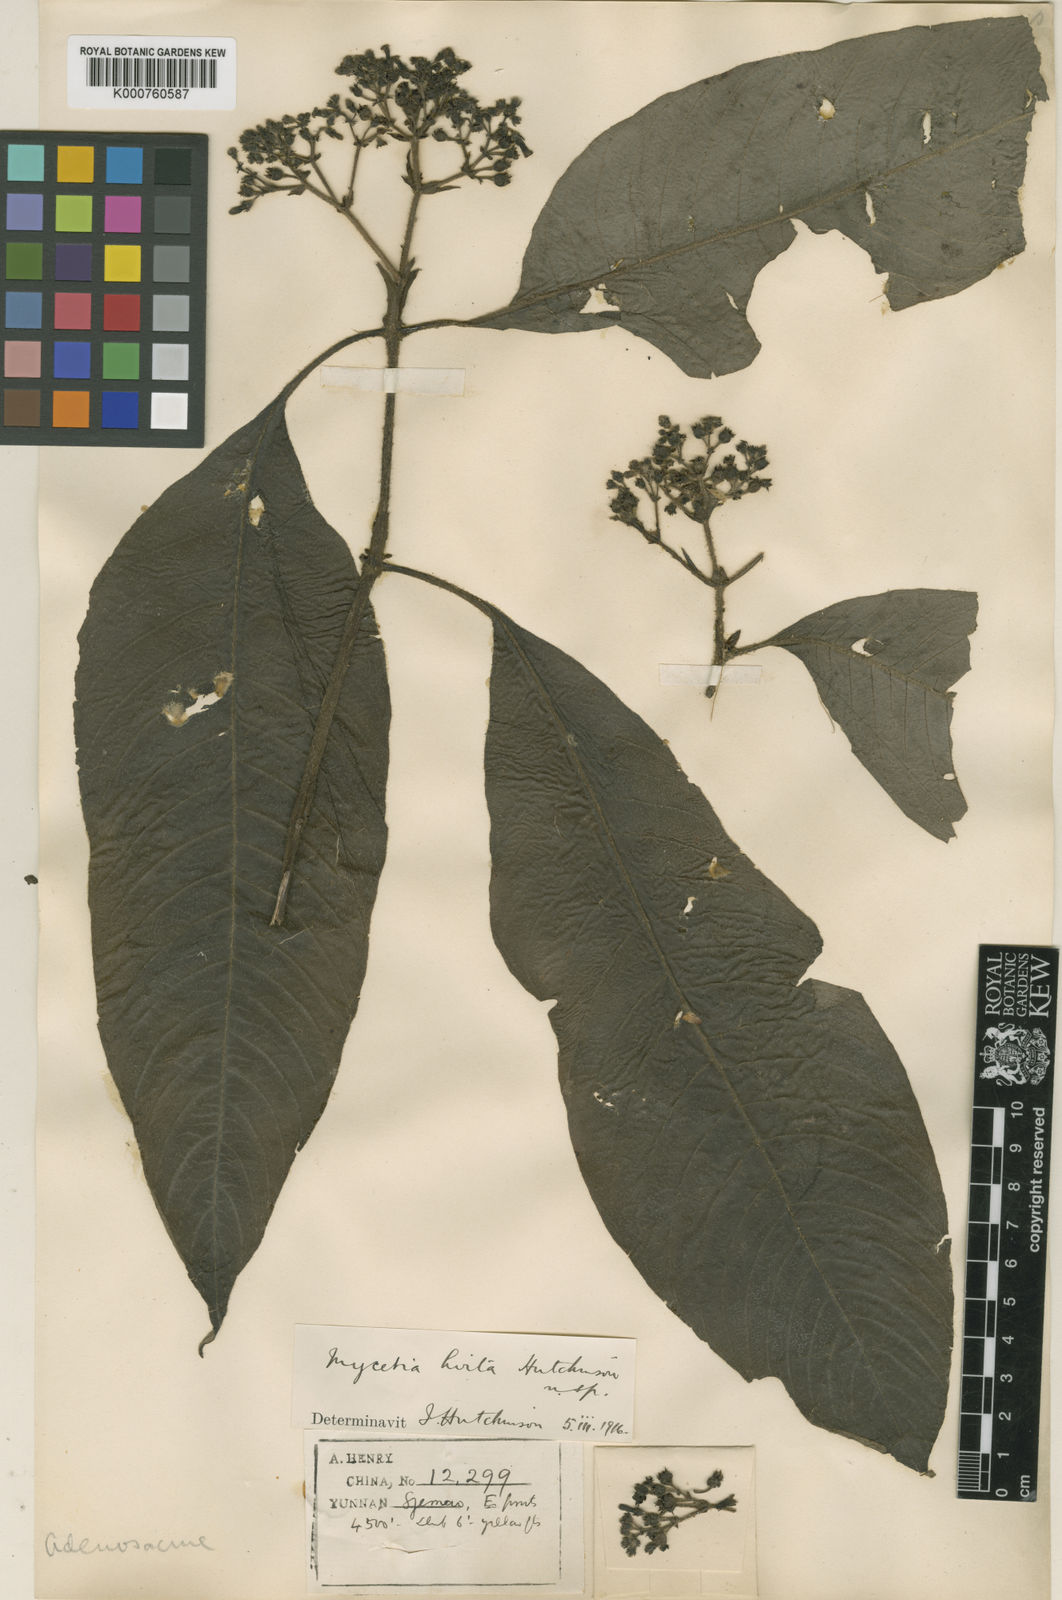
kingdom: Plantae
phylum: Tracheophyta
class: Magnoliopsida
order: Gentianales
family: Rubiaceae
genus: Mycetia
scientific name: Mycetia hirta
